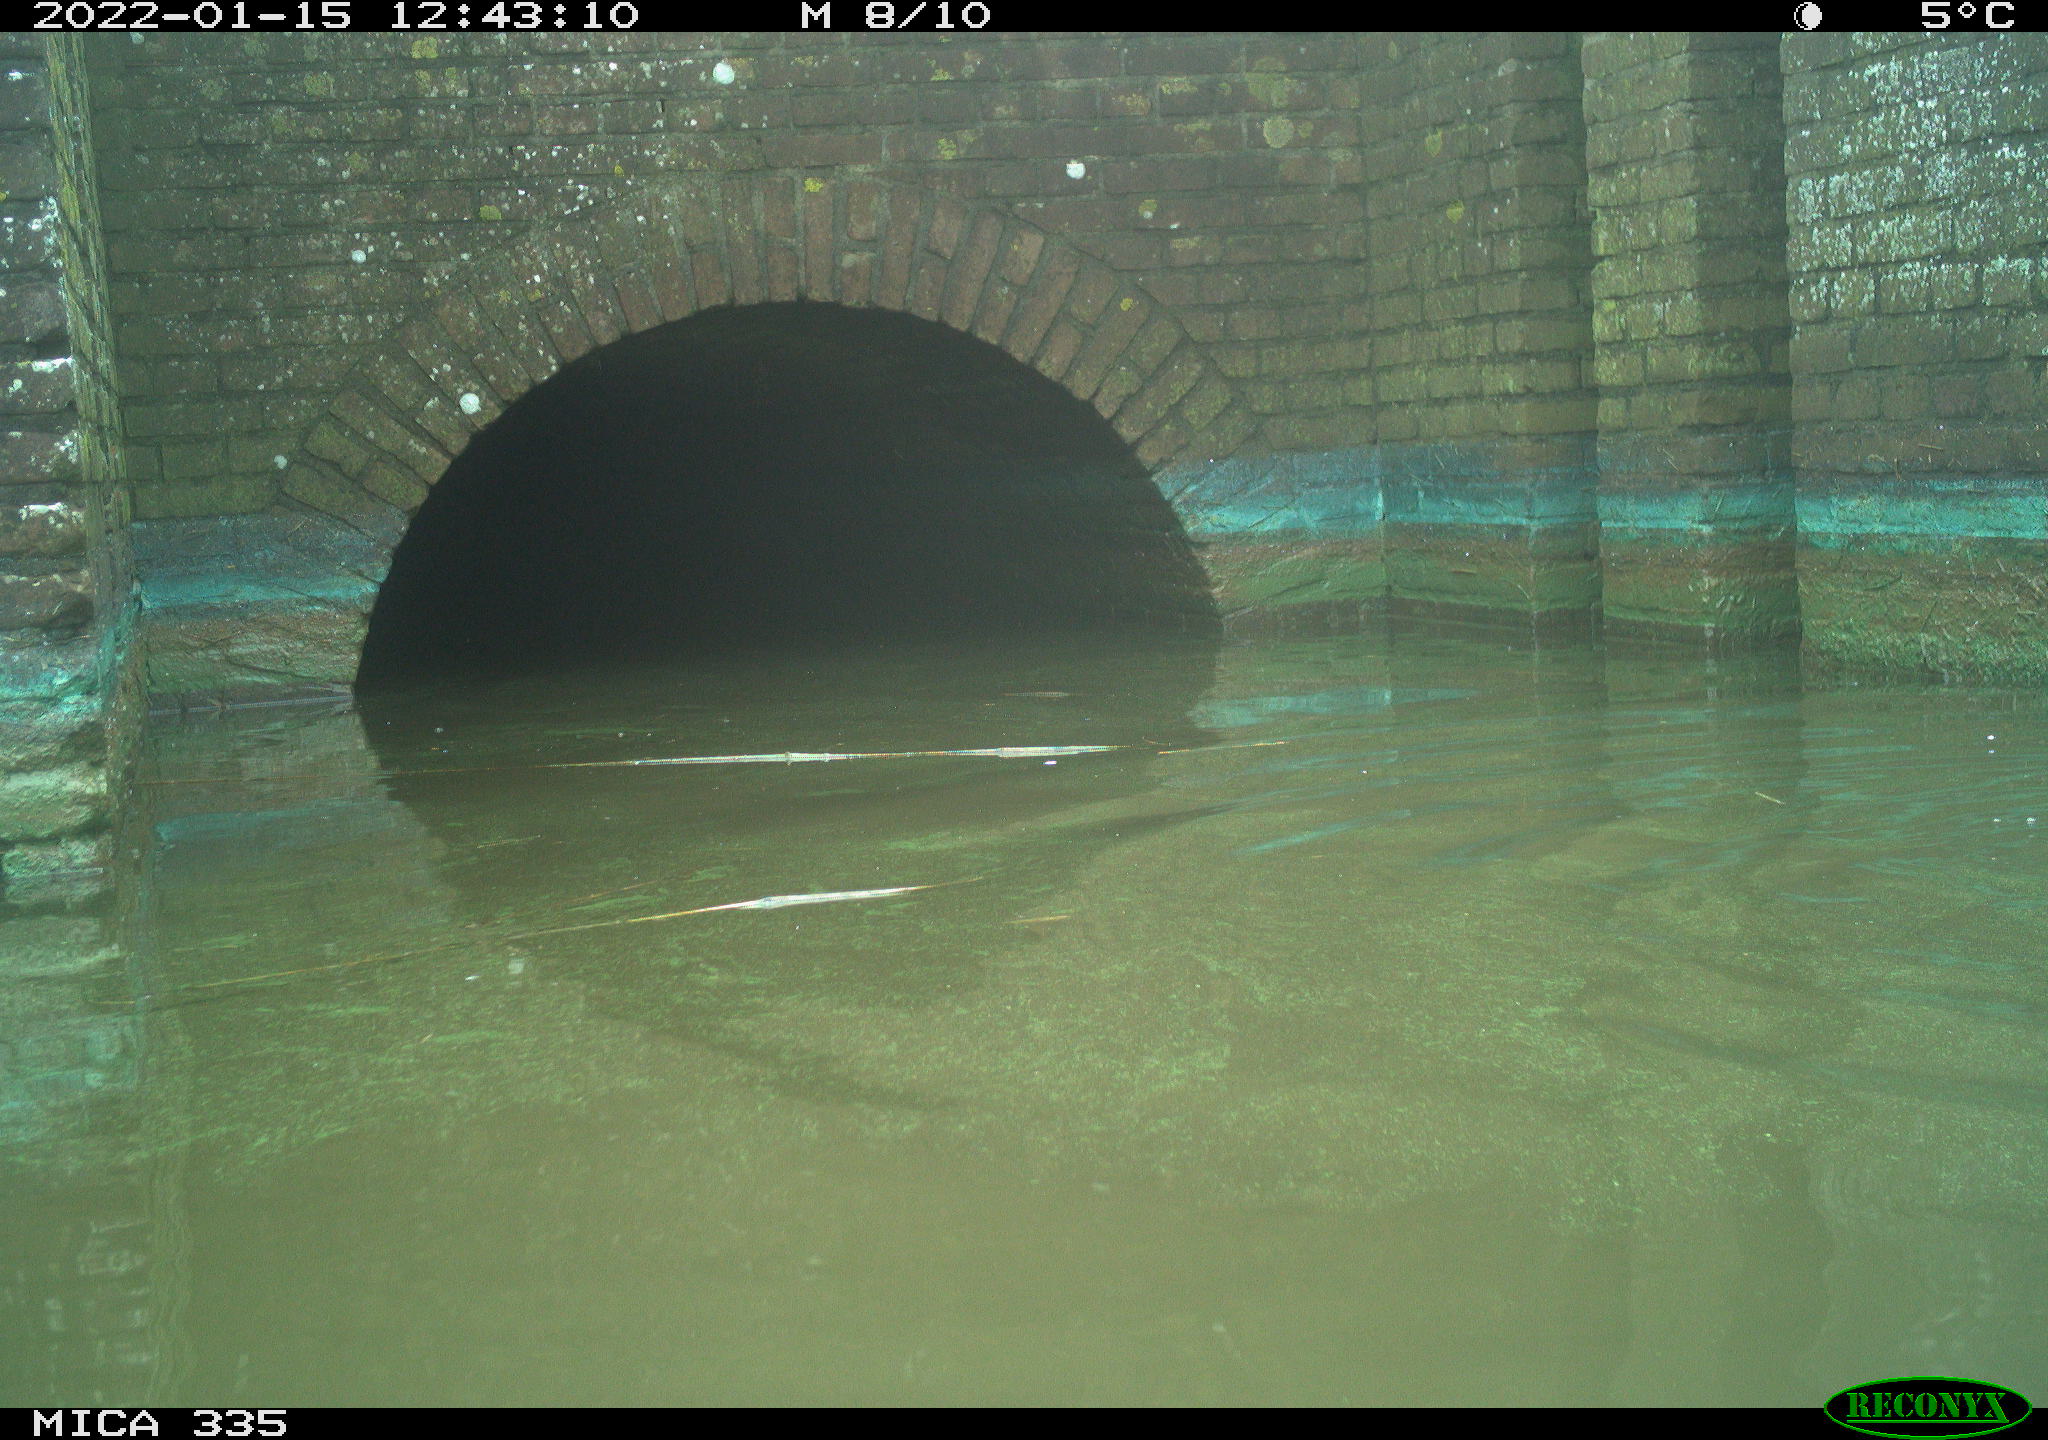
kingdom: Animalia
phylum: Chordata
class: Aves
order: Suliformes
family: Phalacrocoracidae
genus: Phalacrocorax
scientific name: Phalacrocorax carbo
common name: Great cormorant
